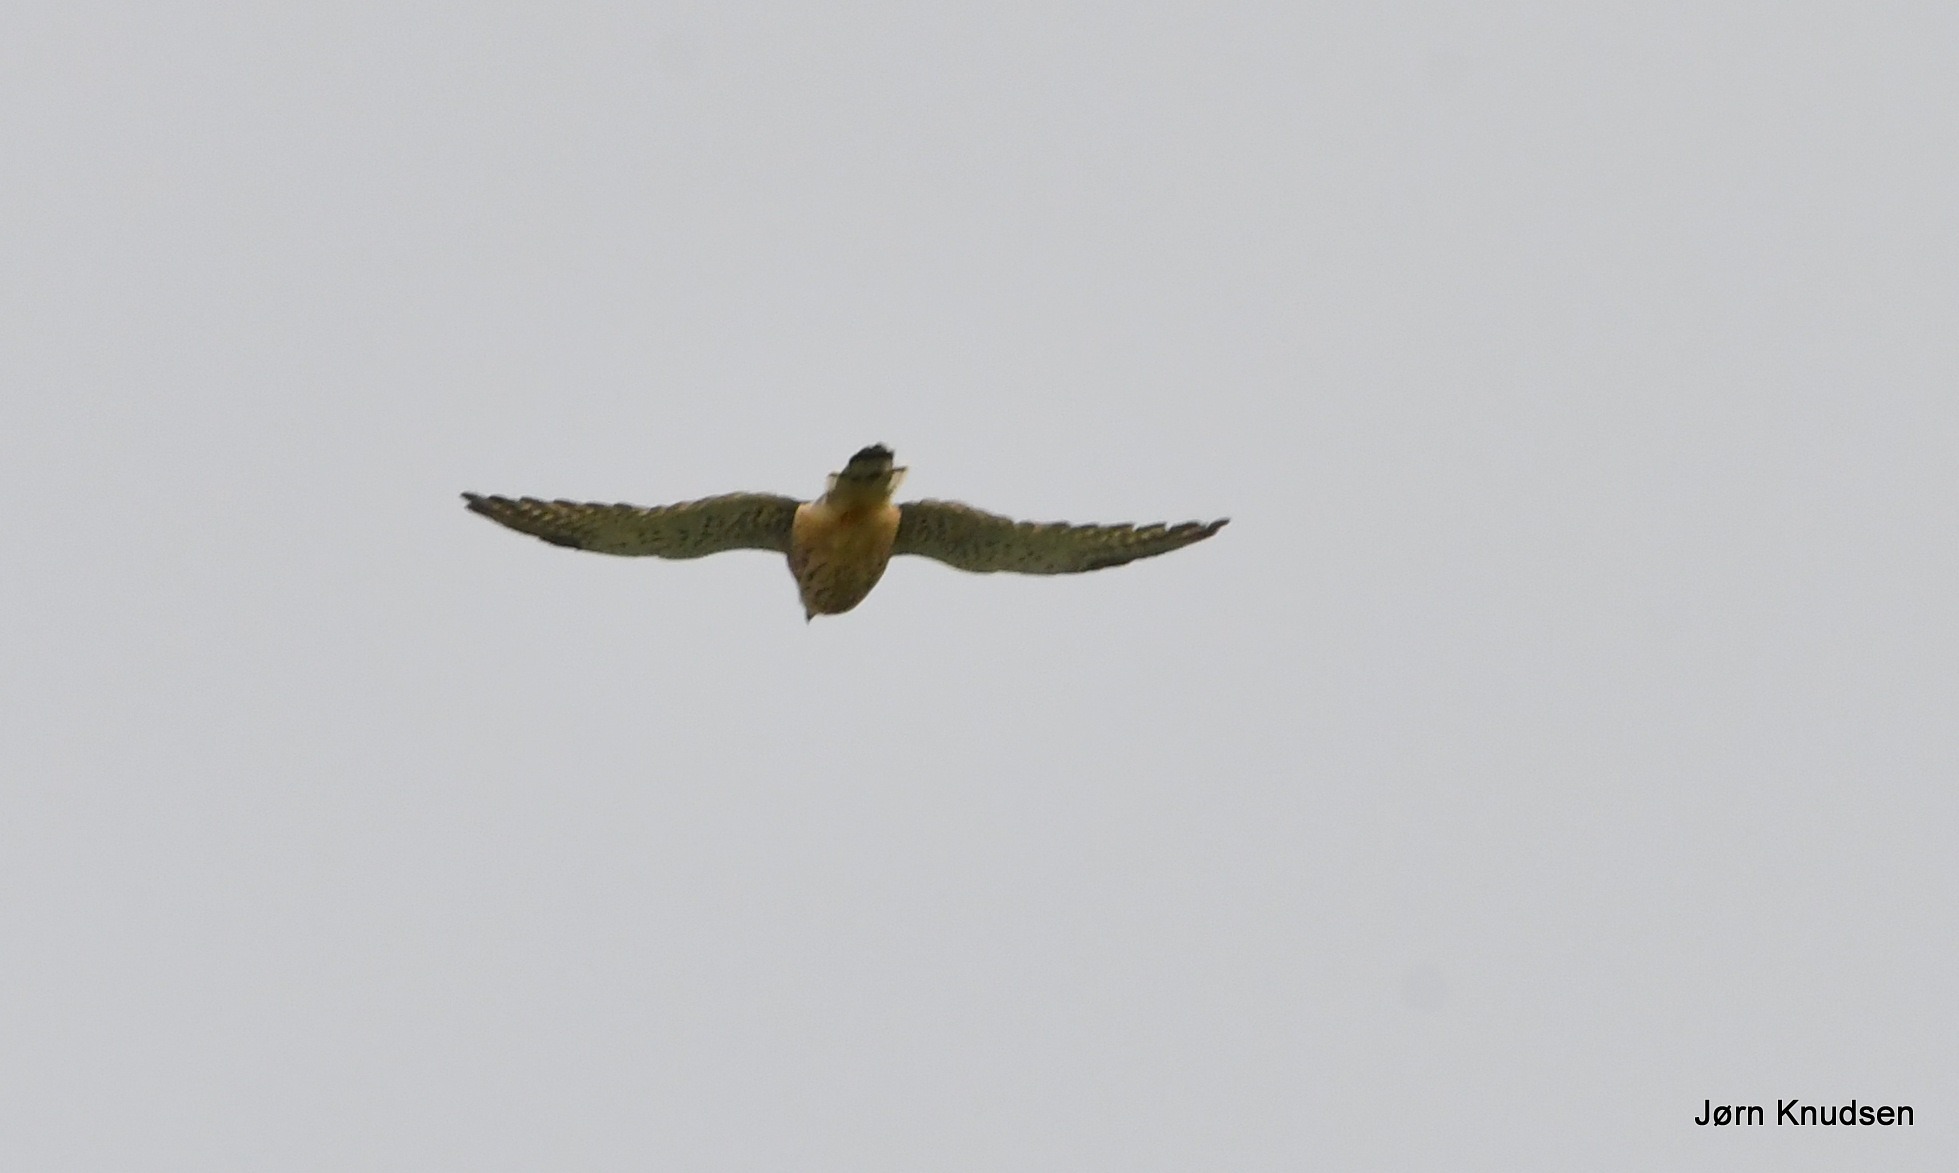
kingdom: Animalia
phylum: Chordata
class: Aves
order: Falconiformes
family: Falconidae
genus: Falco
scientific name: Falco tinnunculus
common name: Tårnfalk
